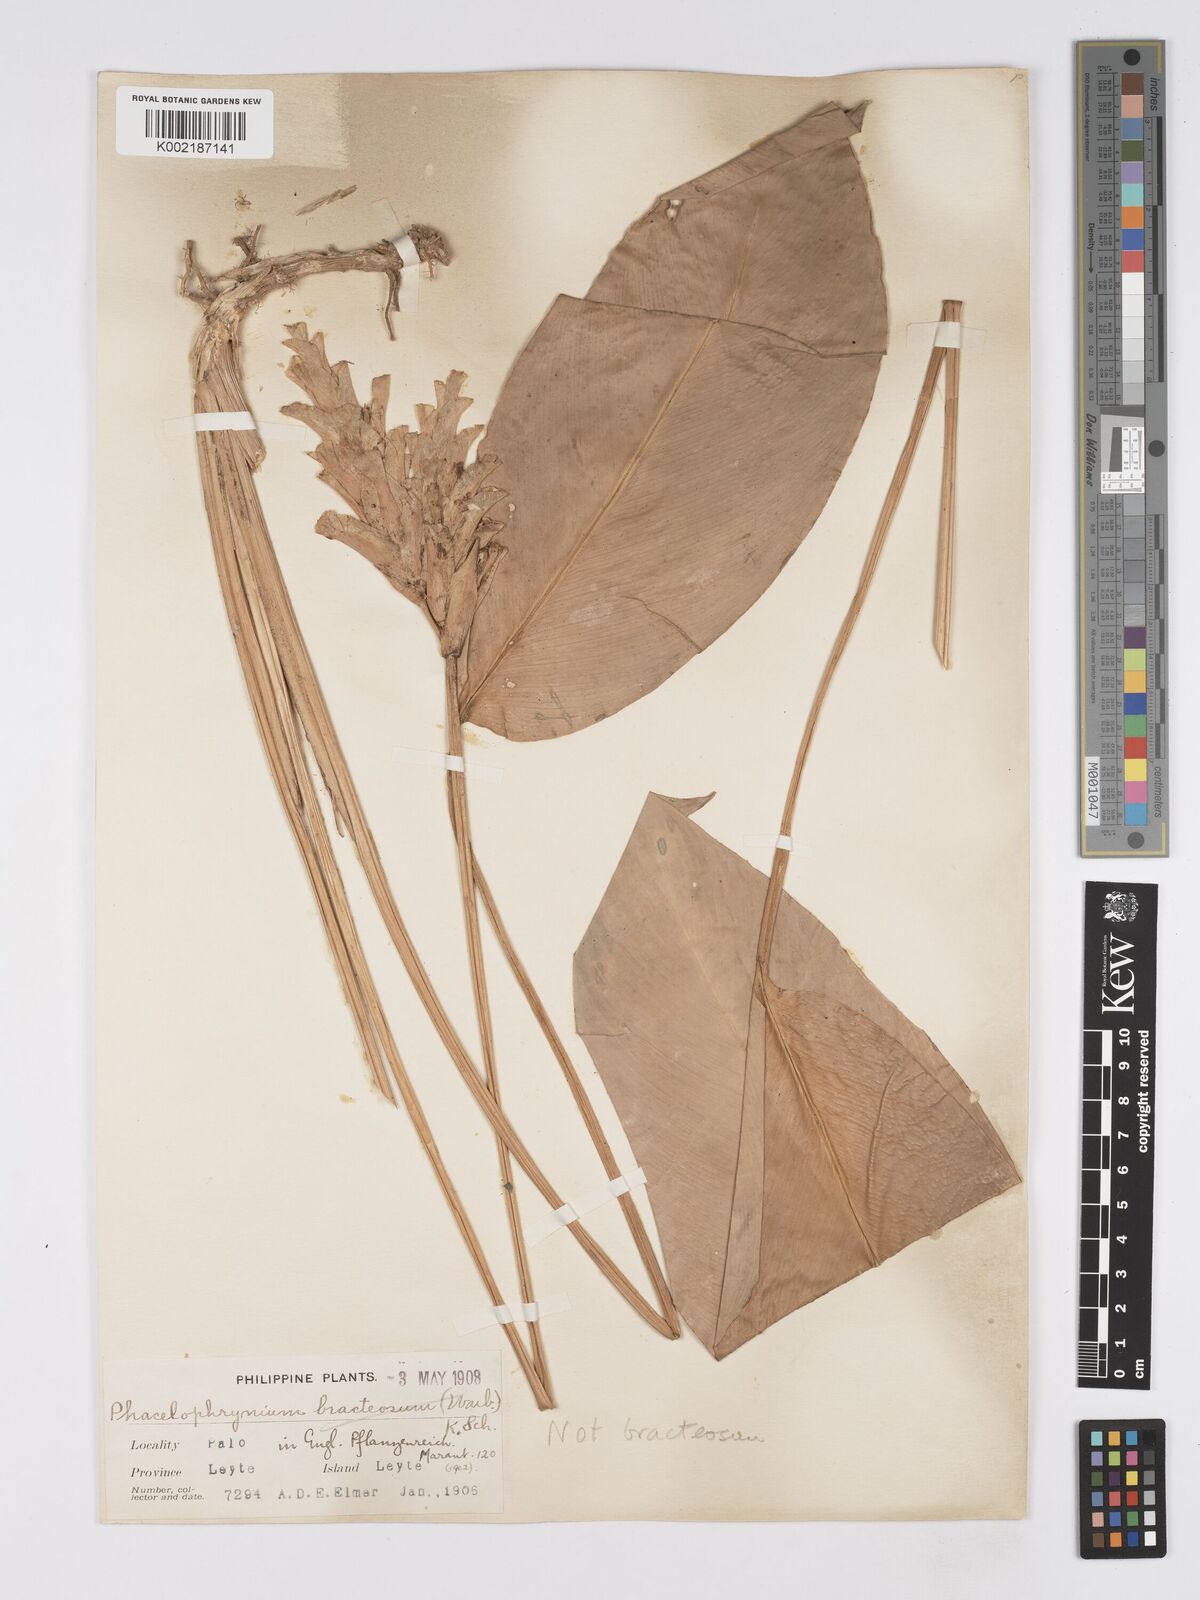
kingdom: Plantae
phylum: Tracheophyta
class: Liliopsida
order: Zingiberales
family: Marantaceae
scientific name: Marantaceae
